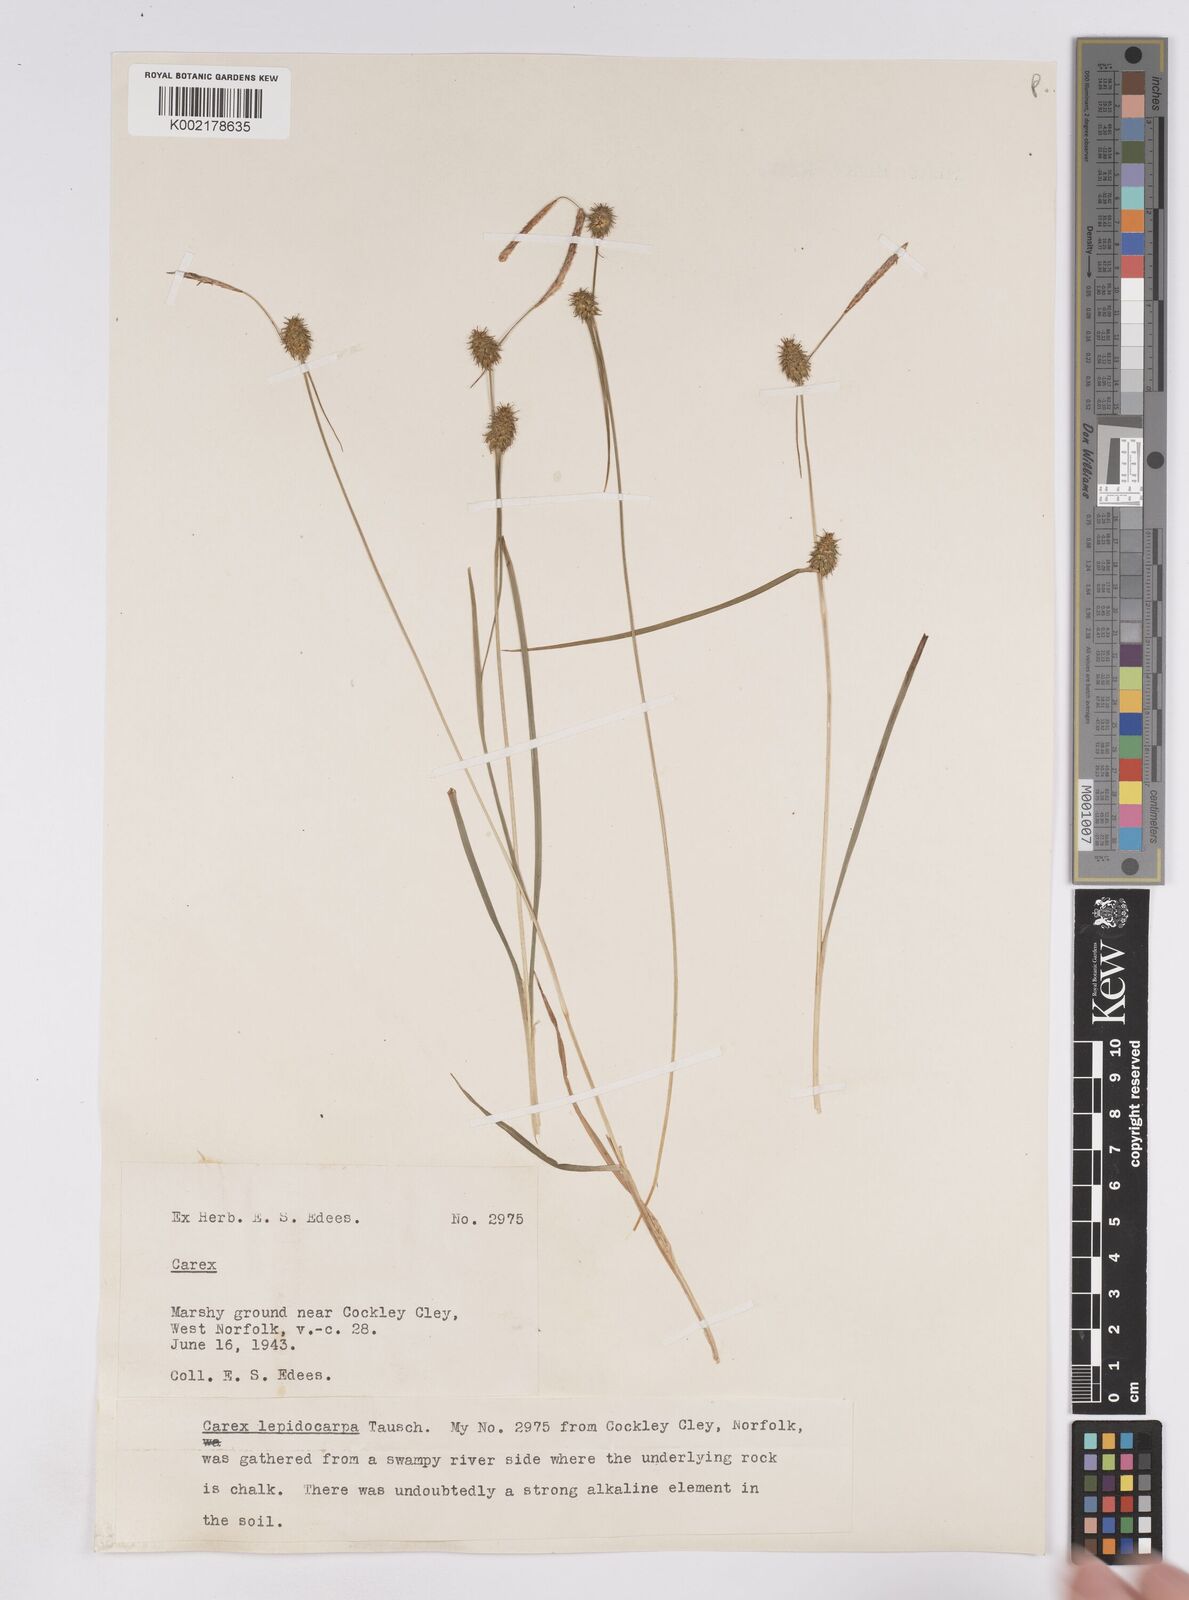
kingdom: Plantae
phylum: Tracheophyta
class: Liliopsida
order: Poales
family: Cyperaceae
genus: Carex
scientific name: Carex lepidocarpa
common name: Long-stalked yellow-sedge
